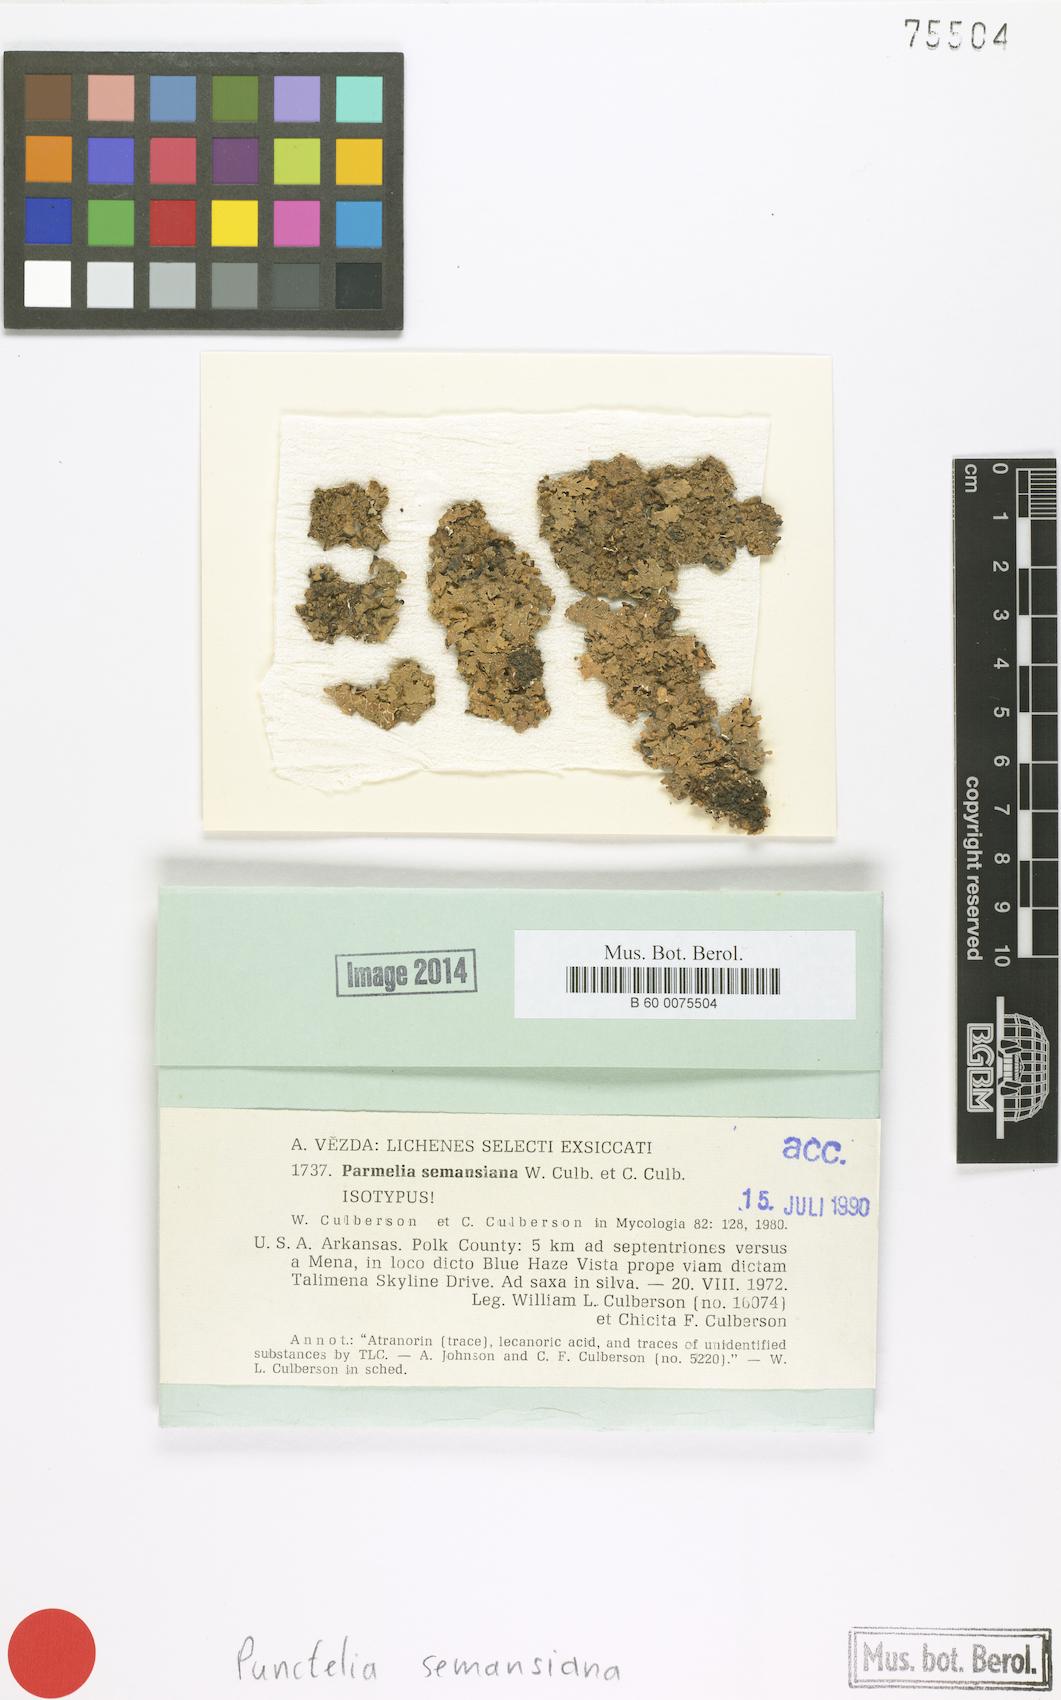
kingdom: Fungi
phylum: Ascomycota
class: Lecanoromycetes
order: Lecanorales
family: Parmeliaceae
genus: Punctelia
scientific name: Punctelia semansiana
